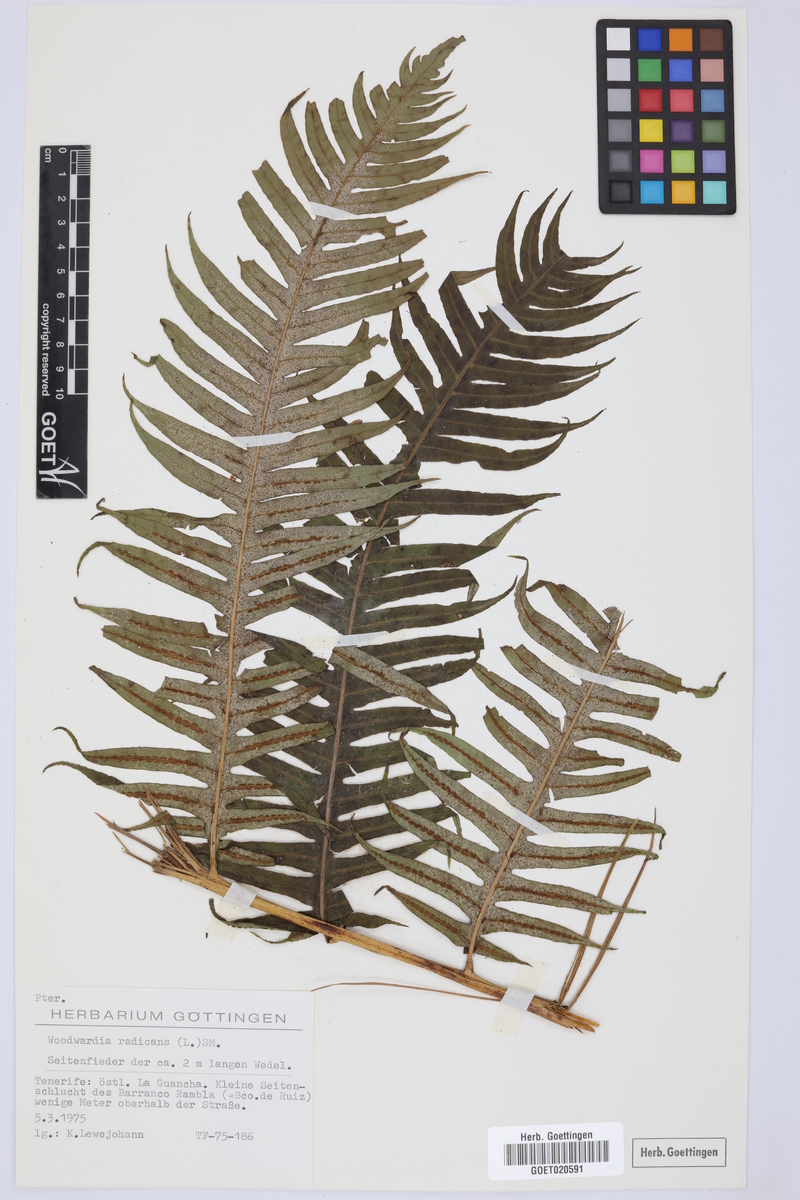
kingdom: Plantae
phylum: Tracheophyta
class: Polypodiopsida
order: Polypodiales
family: Blechnaceae
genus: Woodwardia
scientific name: Woodwardia radicans
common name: Rooting chainfern
